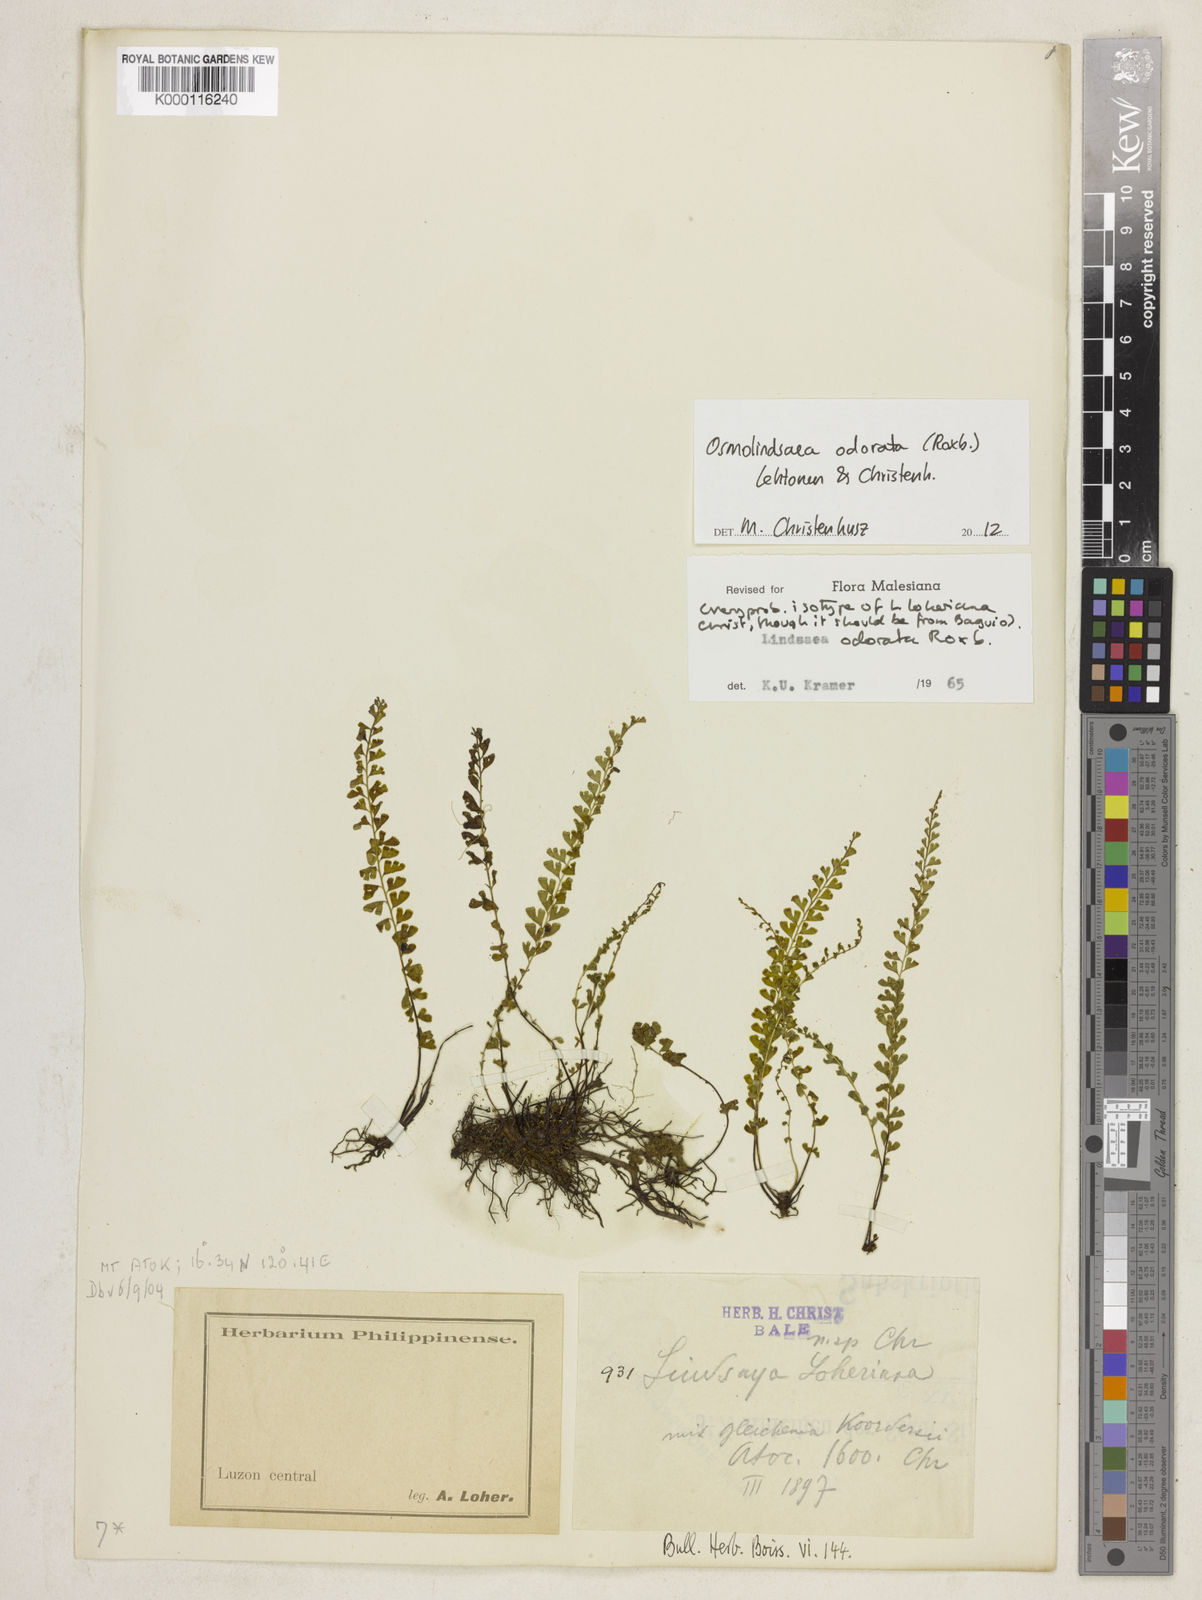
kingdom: Plantae
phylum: Tracheophyta
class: Polypodiopsida
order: Polypodiales
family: Lindsaeaceae
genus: Osmolindsaea
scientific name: Osmolindsaea odorata
